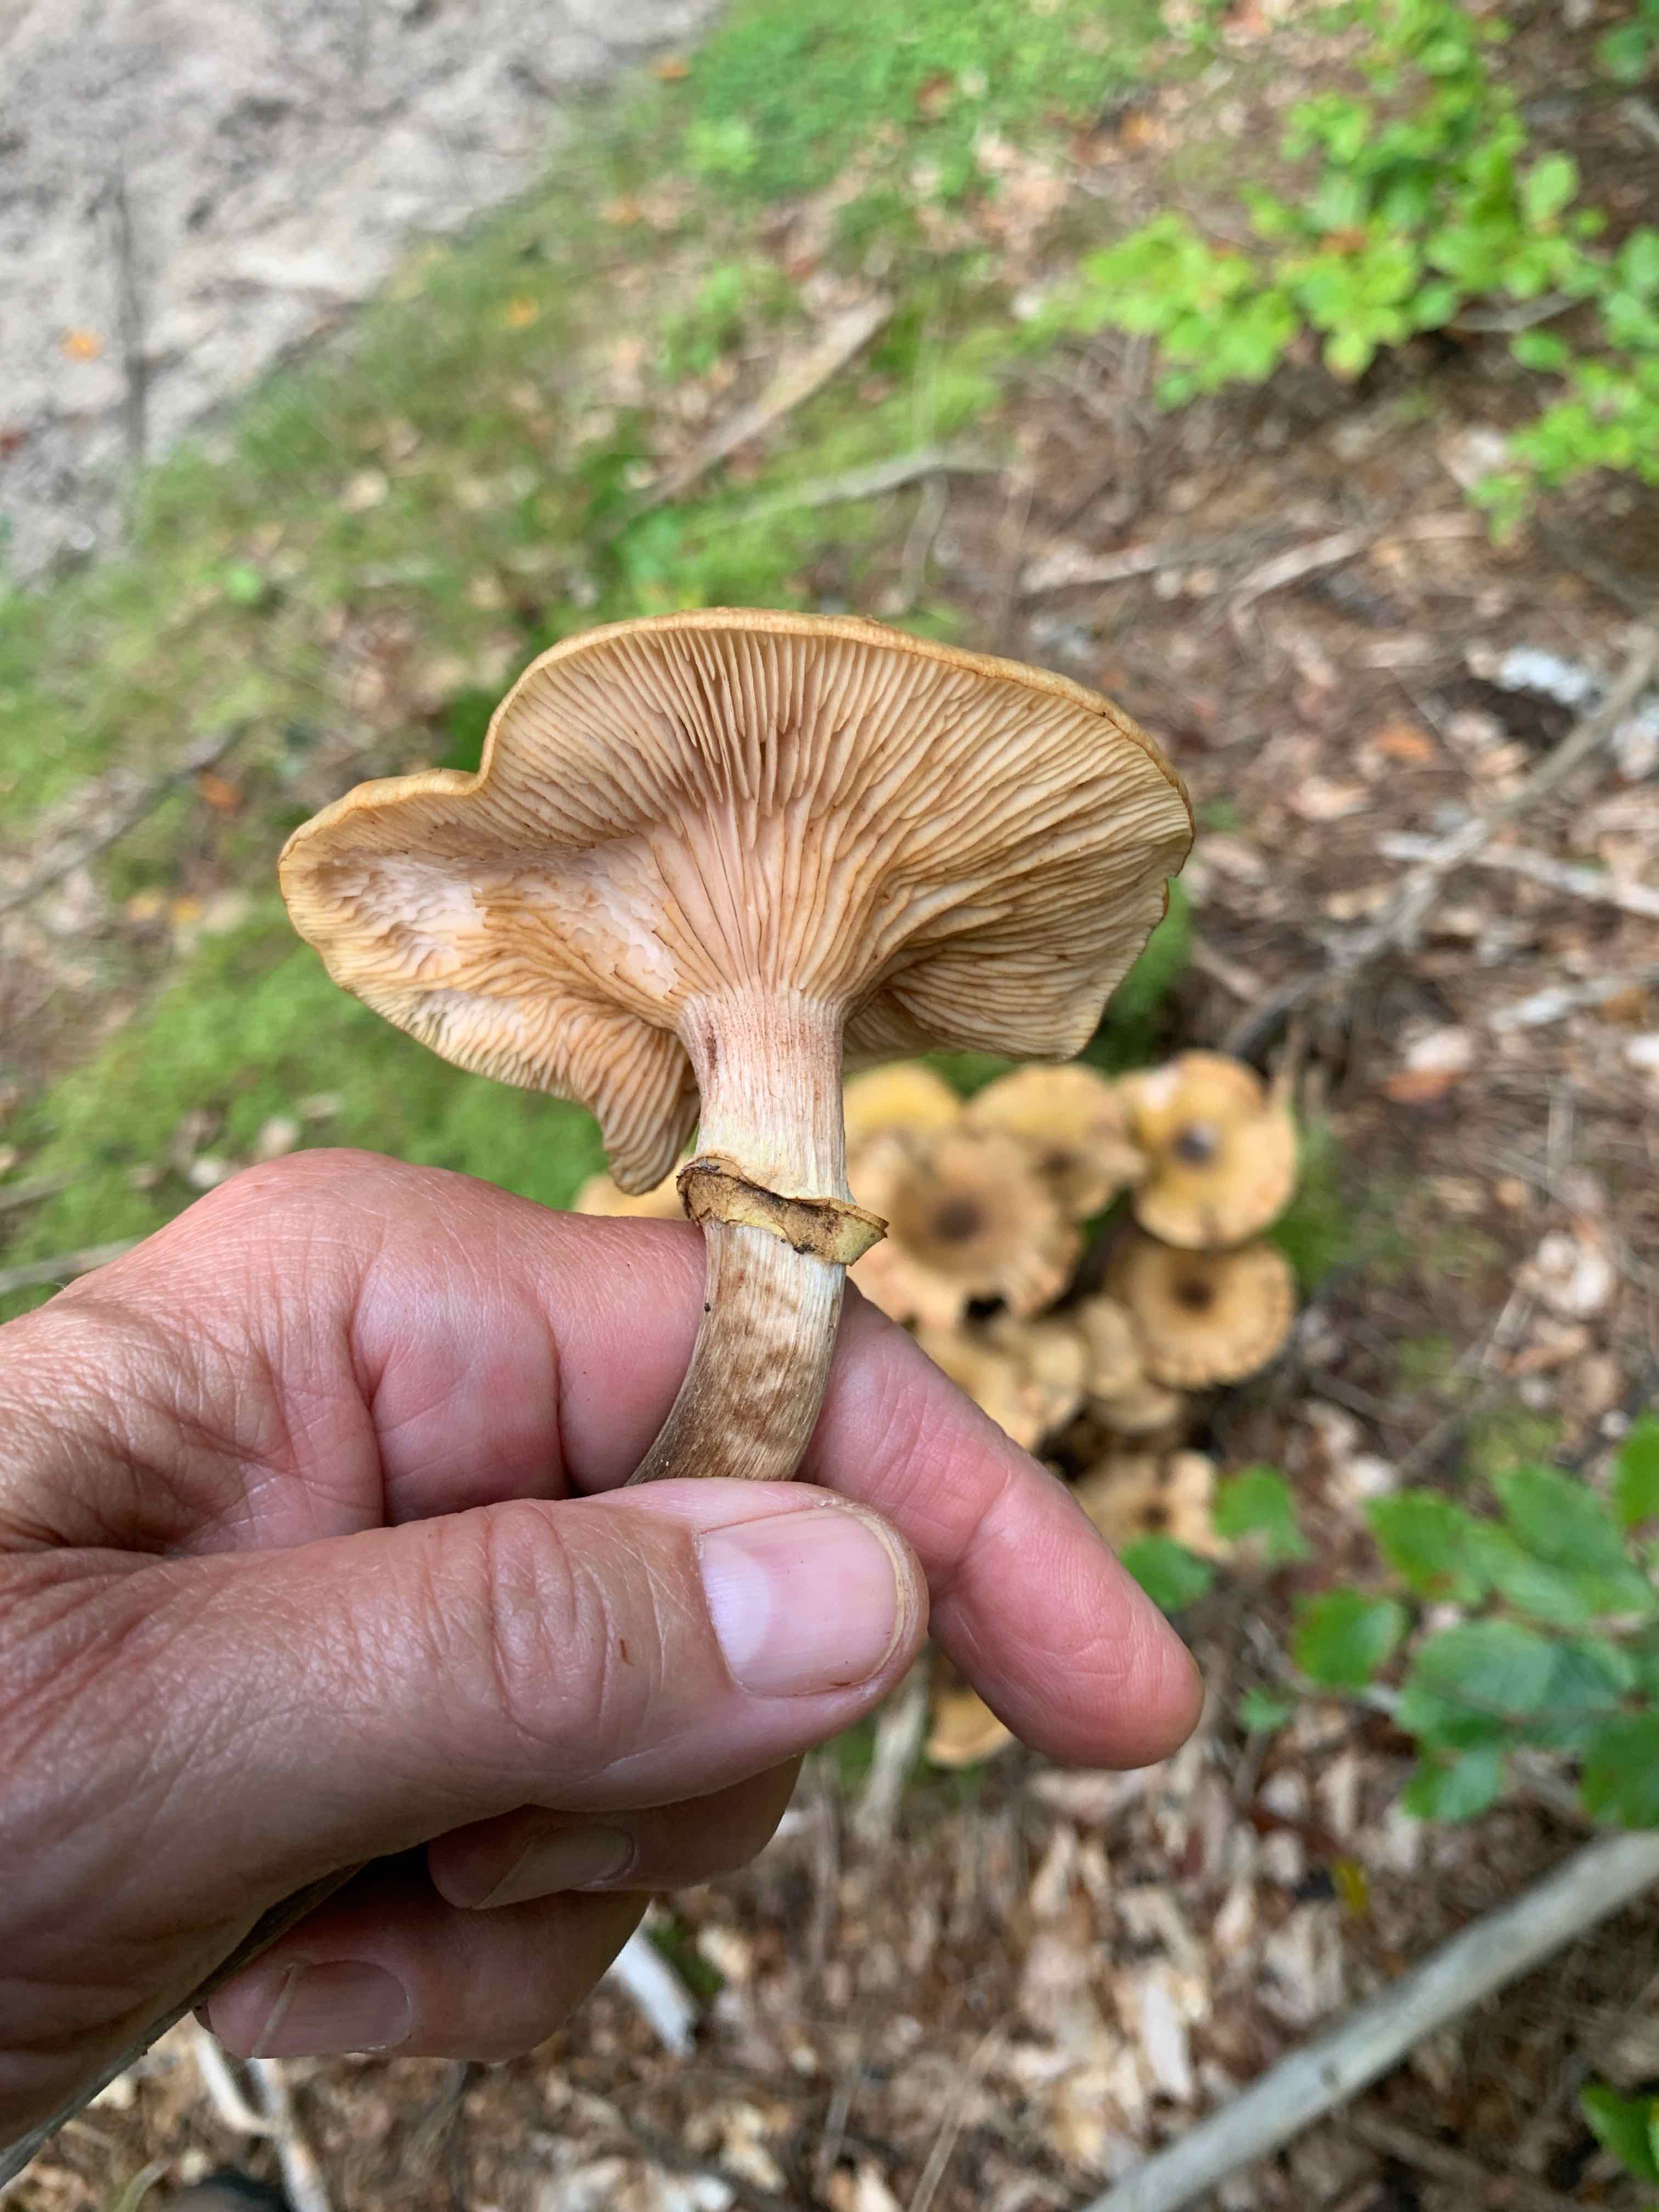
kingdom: Fungi
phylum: Basidiomycota
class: Agaricomycetes
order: Agaricales
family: Physalacriaceae
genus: Armillaria
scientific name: Armillaria mellea
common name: ægte honningsvamp
